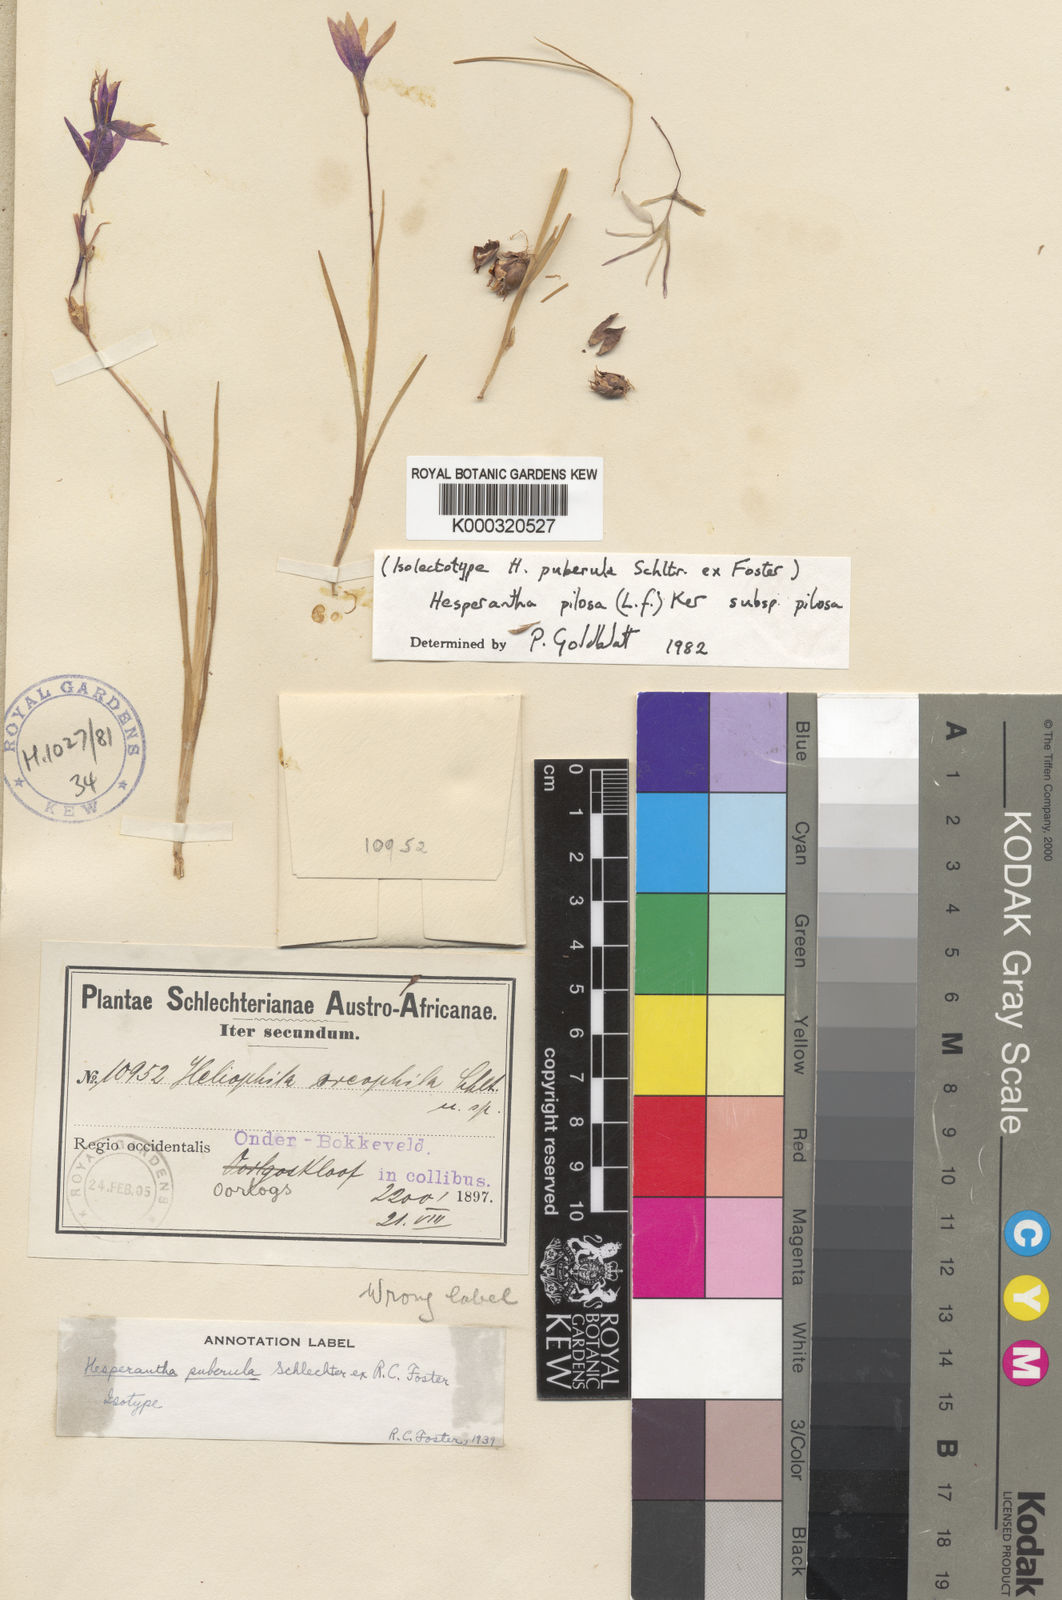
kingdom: Plantae
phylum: Tracheophyta
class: Liliopsida
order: Asparagales
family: Iridaceae
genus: Hesperantha
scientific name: Hesperantha pilosa
